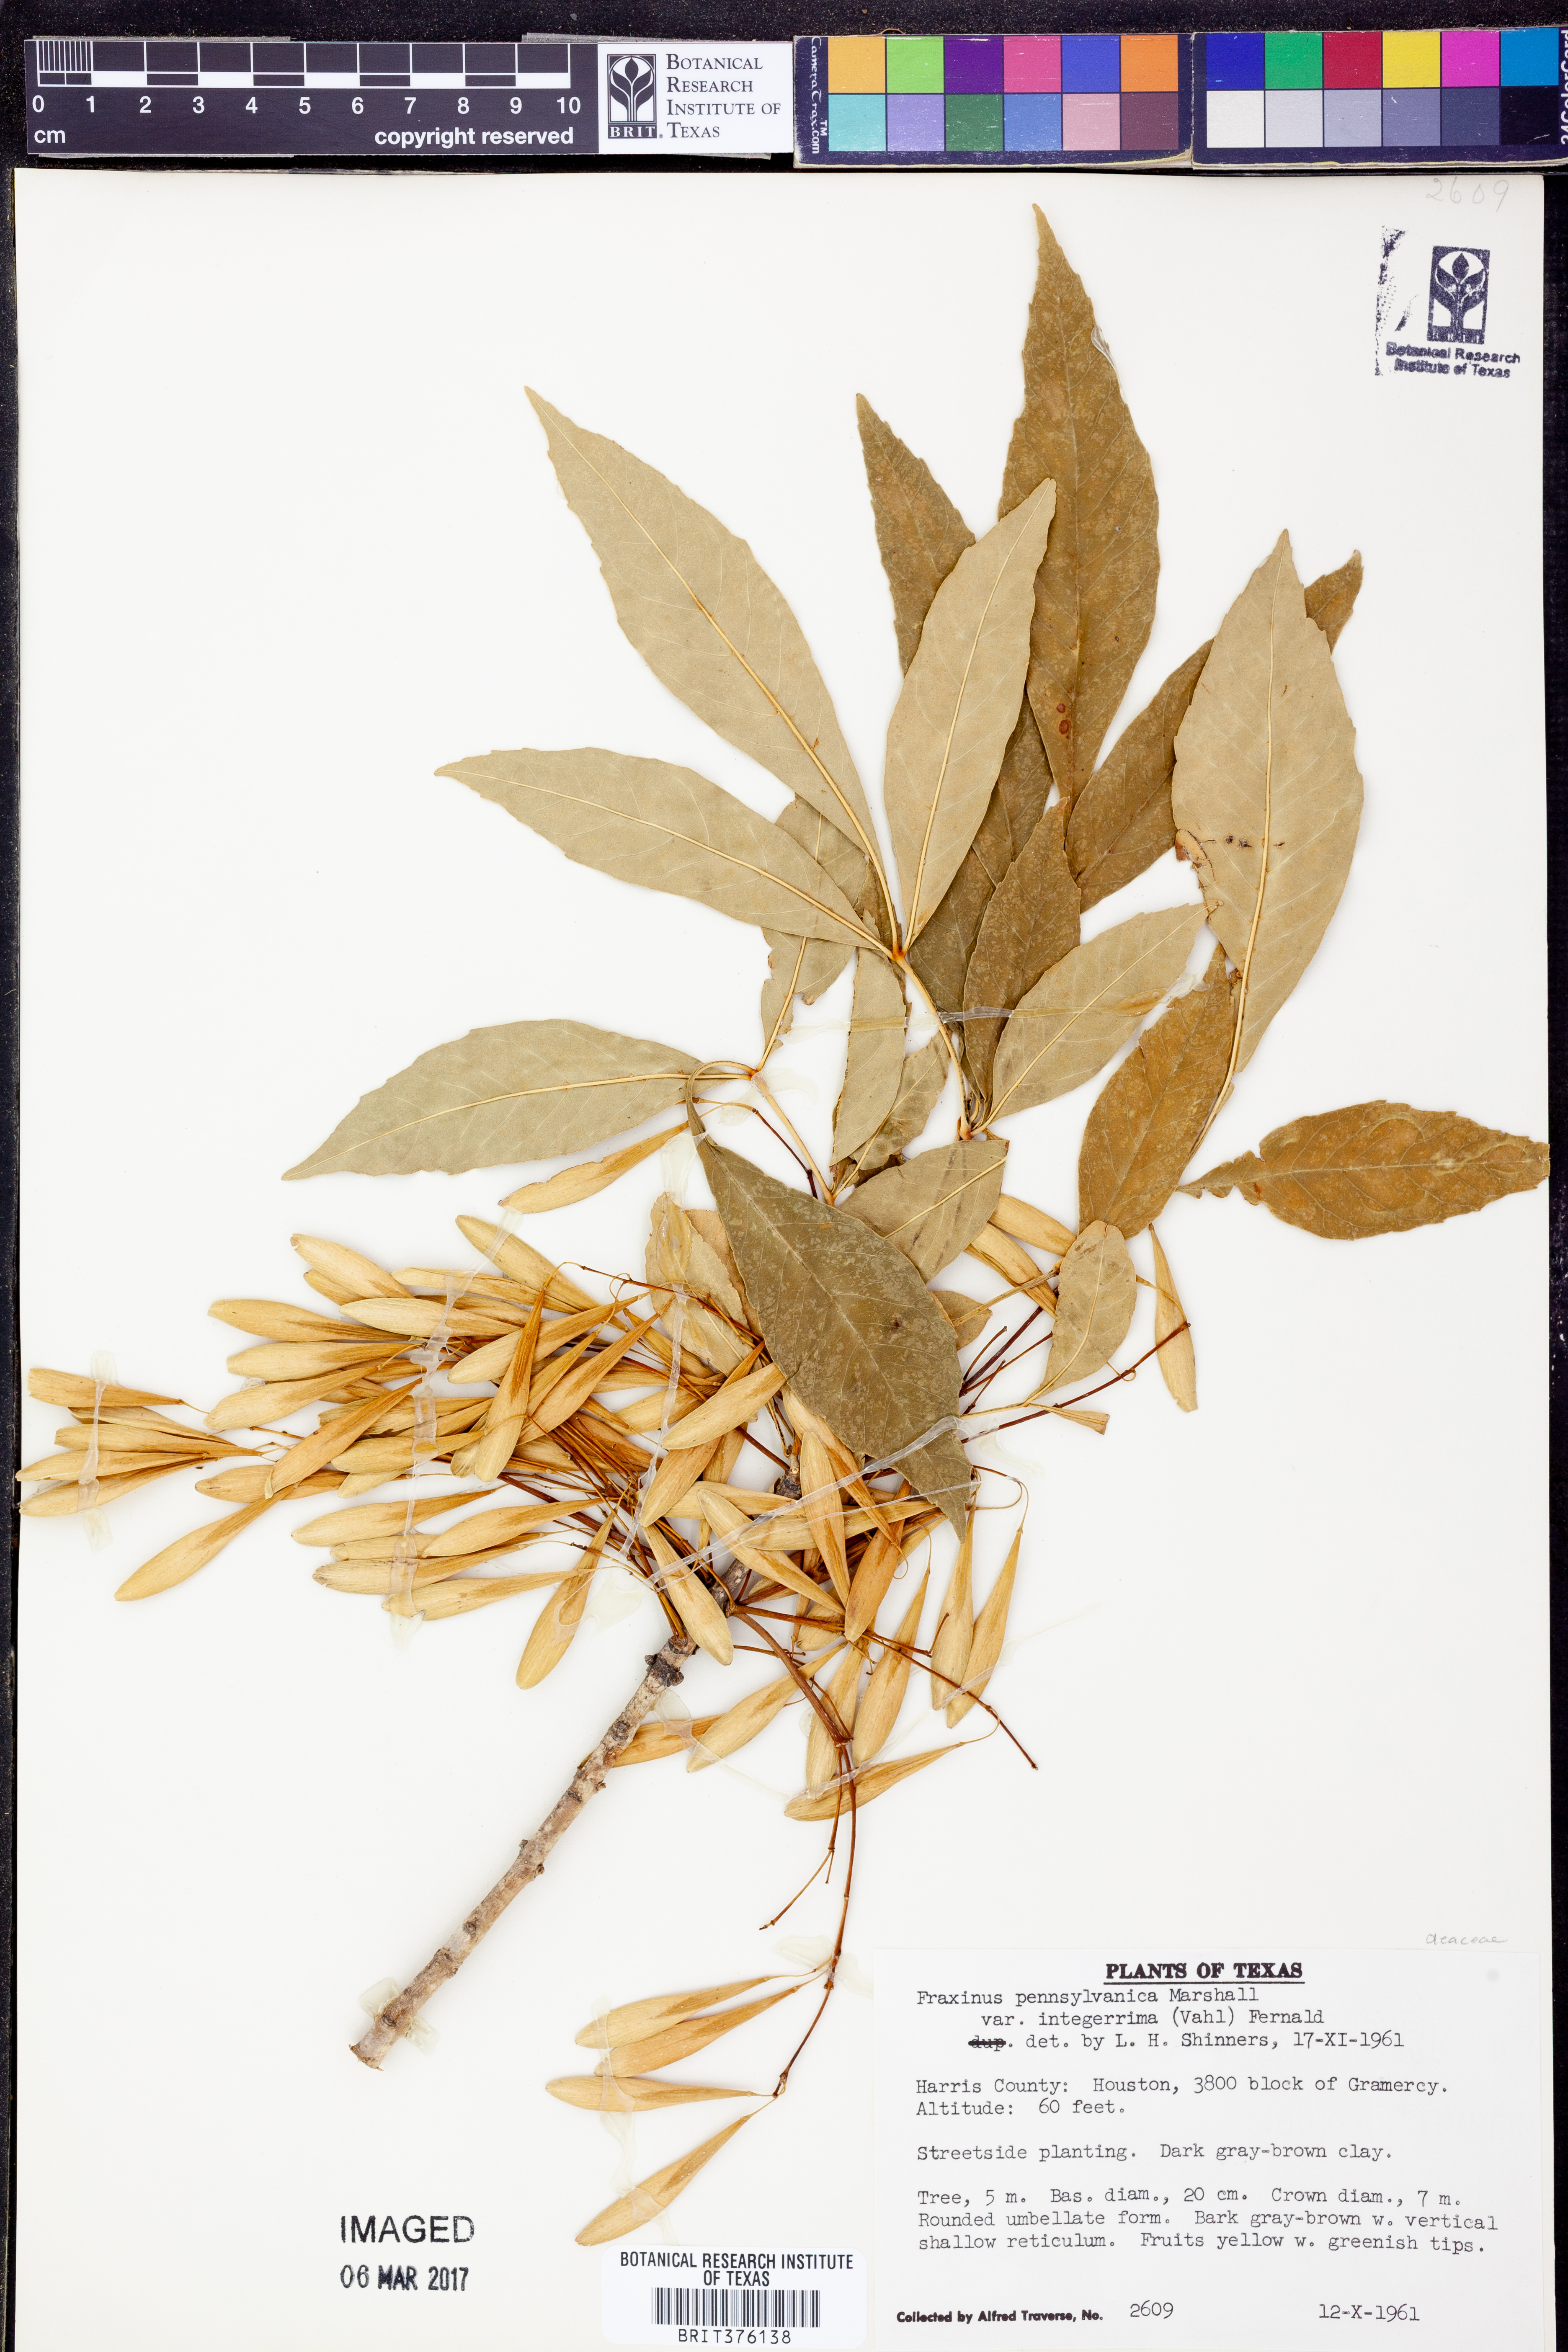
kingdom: Plantae
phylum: Tracheophyta
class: Magnoliopsida
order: Lamiales
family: Oleaceae
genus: Fraxinus
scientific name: Fraxinus pennsylvanica
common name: Green ash
